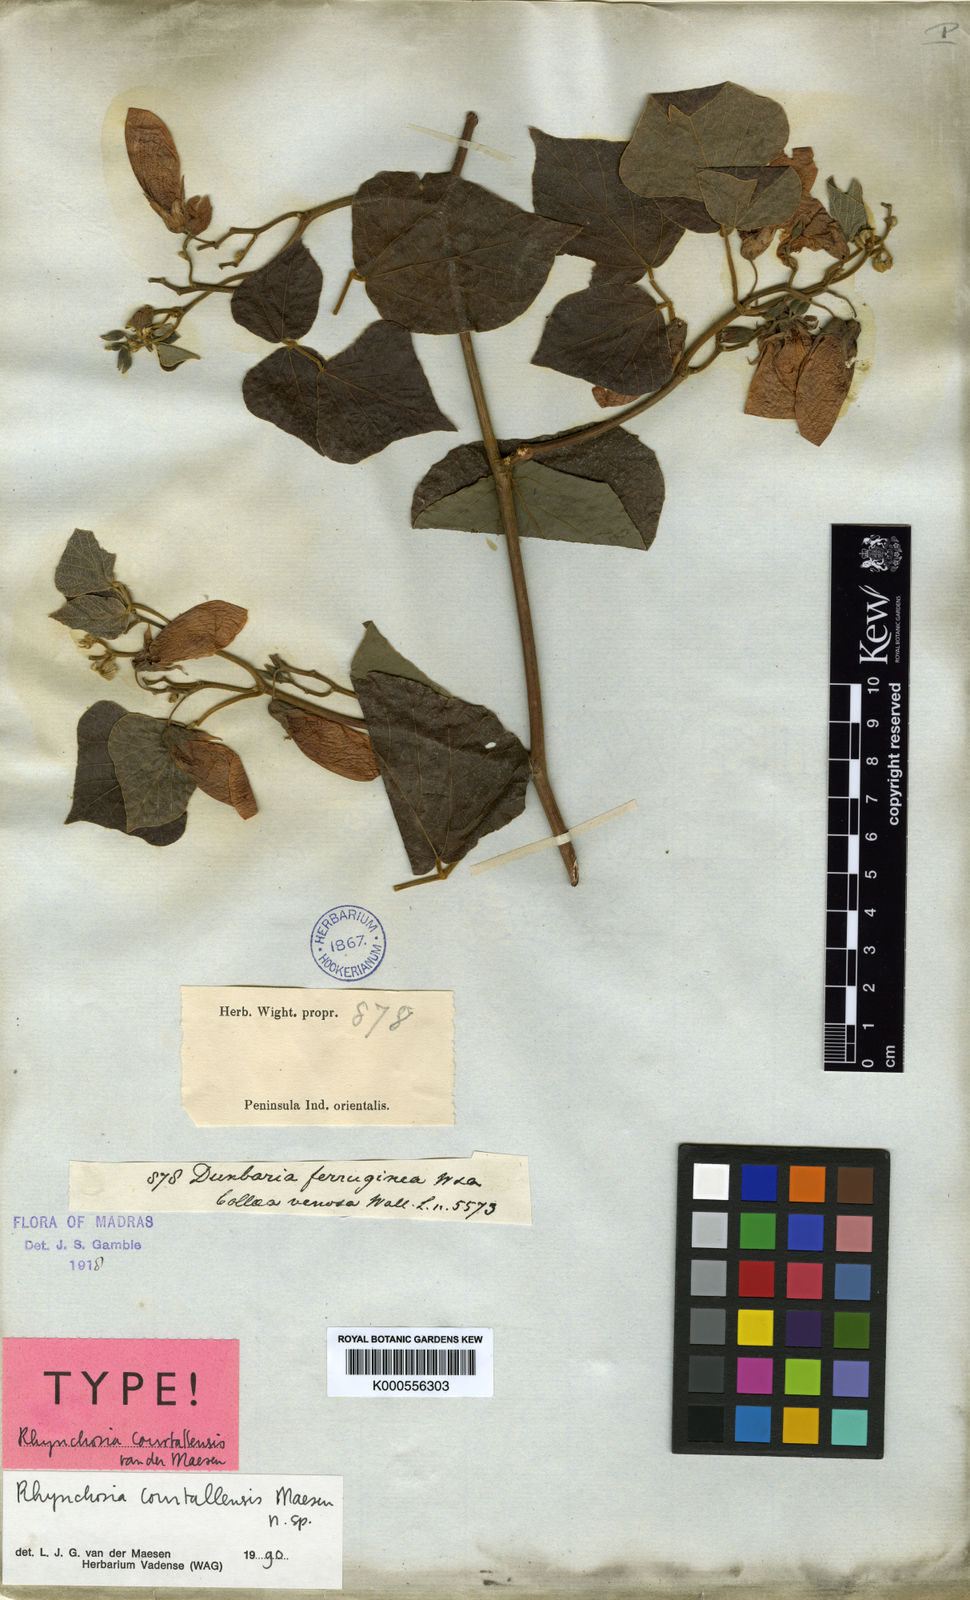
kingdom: Plantae
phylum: Tracheophyta
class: Magnoliopsida
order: Fabales
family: Fabaceae
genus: Dunbaria
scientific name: Dunbaria ferruginea
